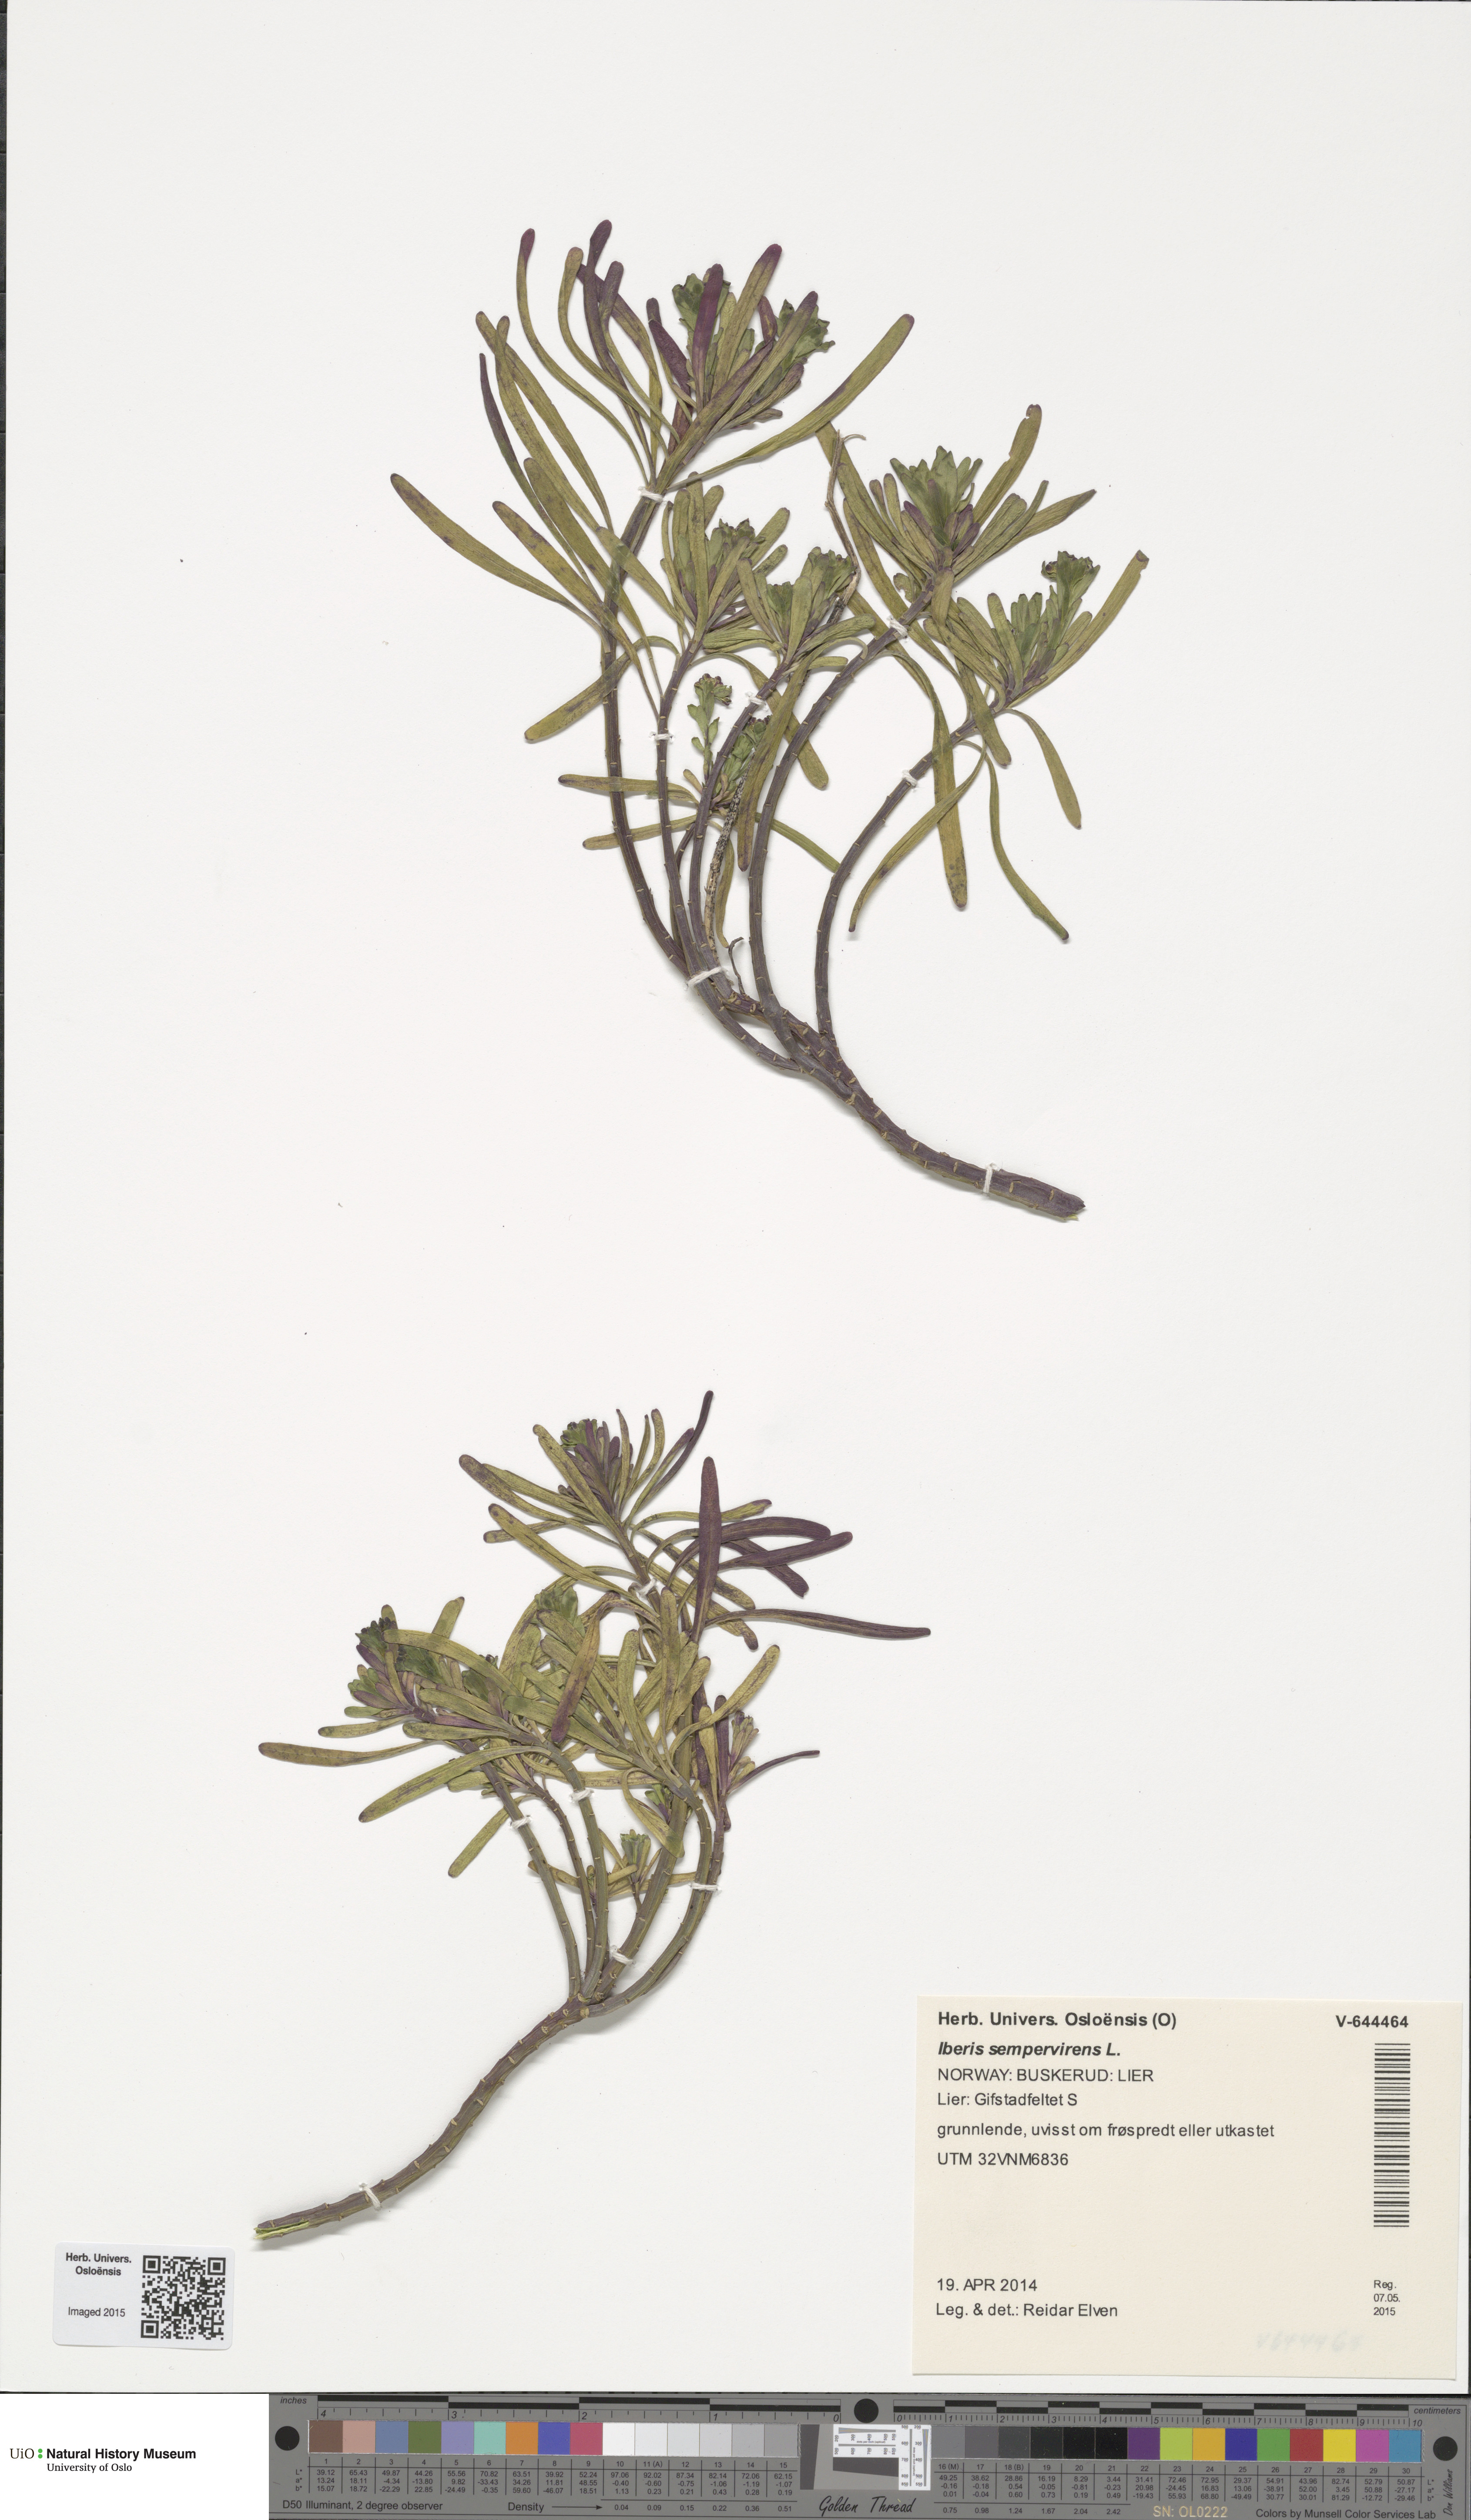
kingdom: Plantae
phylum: Tracheophyta
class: Magnoliopsida
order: Brassicales
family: Brassicaceae
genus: Iberis
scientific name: Iberis sempervirens
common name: Evergreen candytuft
